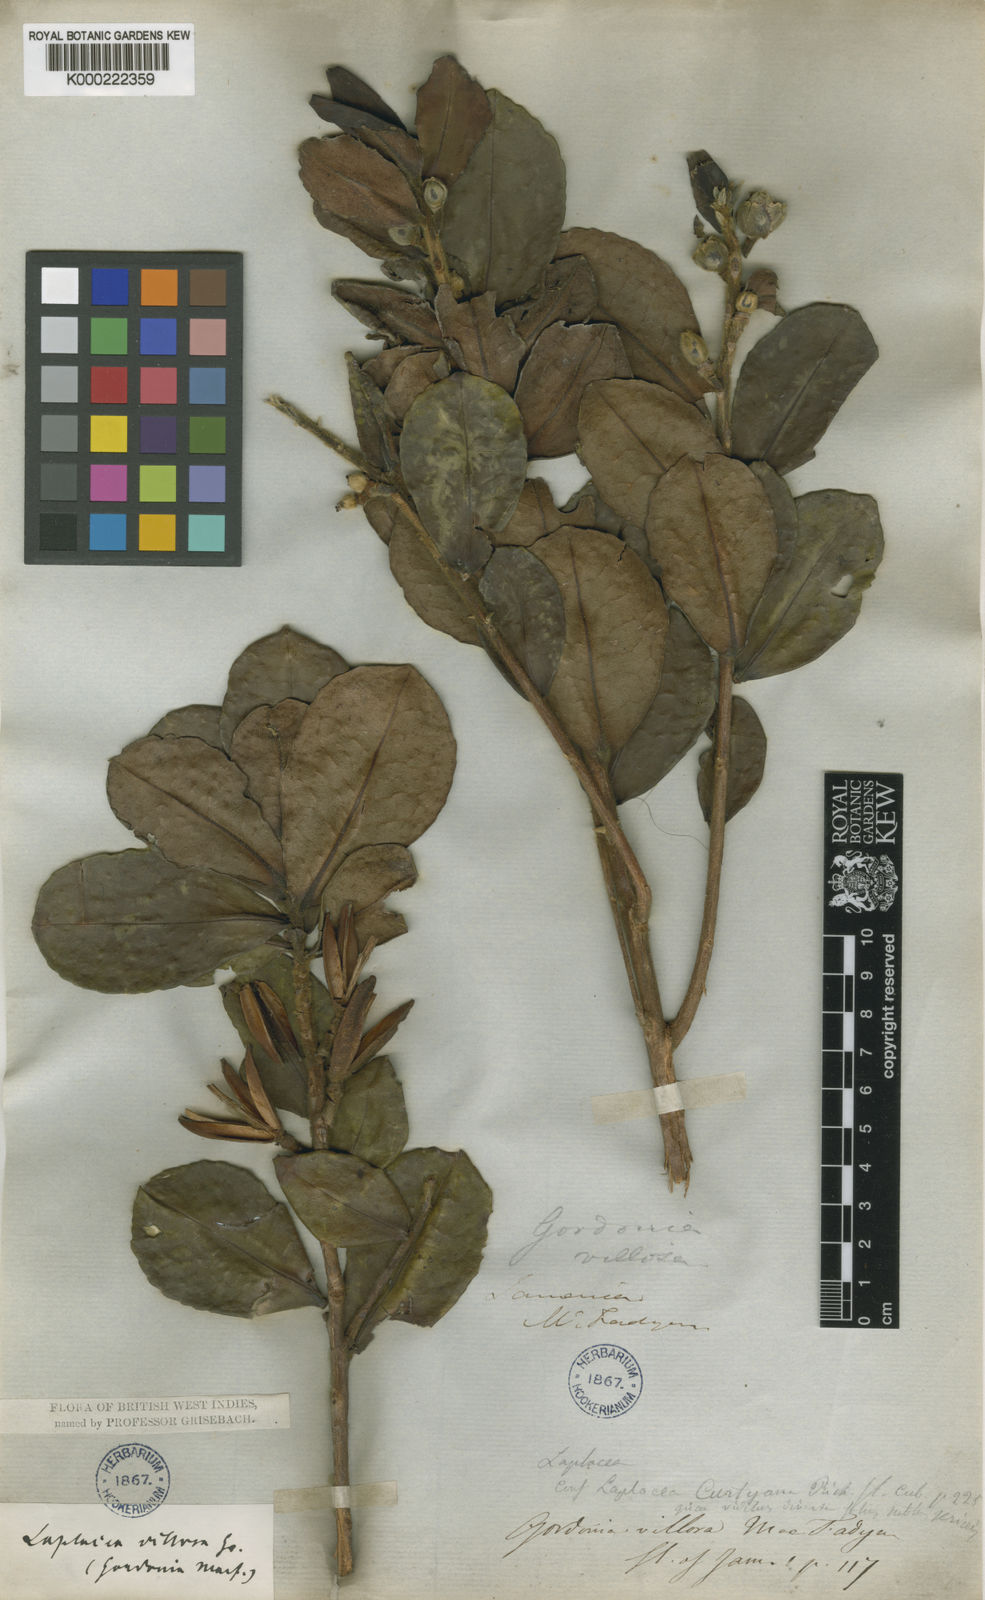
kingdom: Plantae
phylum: Tracheophyta
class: Magnoliopsida
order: Ericales
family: Theaceae
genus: Gordonia
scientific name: Gordonia villosa
